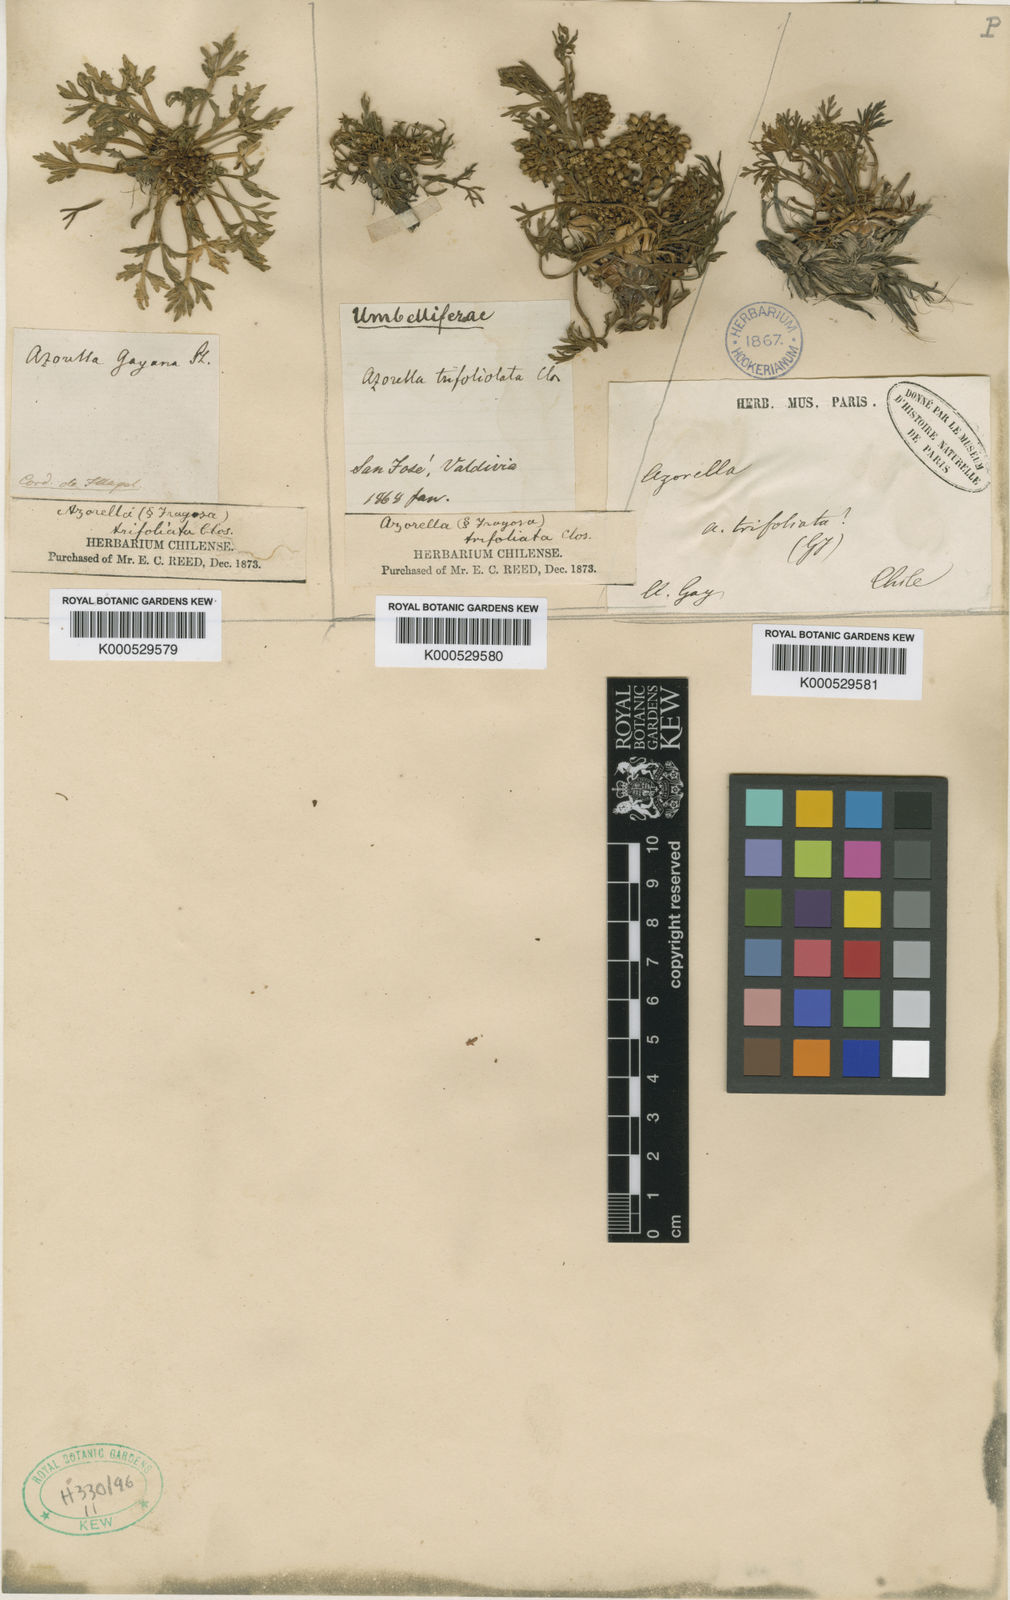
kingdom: Plantae
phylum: Tracheophyta
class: Magnoliopsida
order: Apiales
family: Apiaceae
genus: Azorella
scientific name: Azorella
